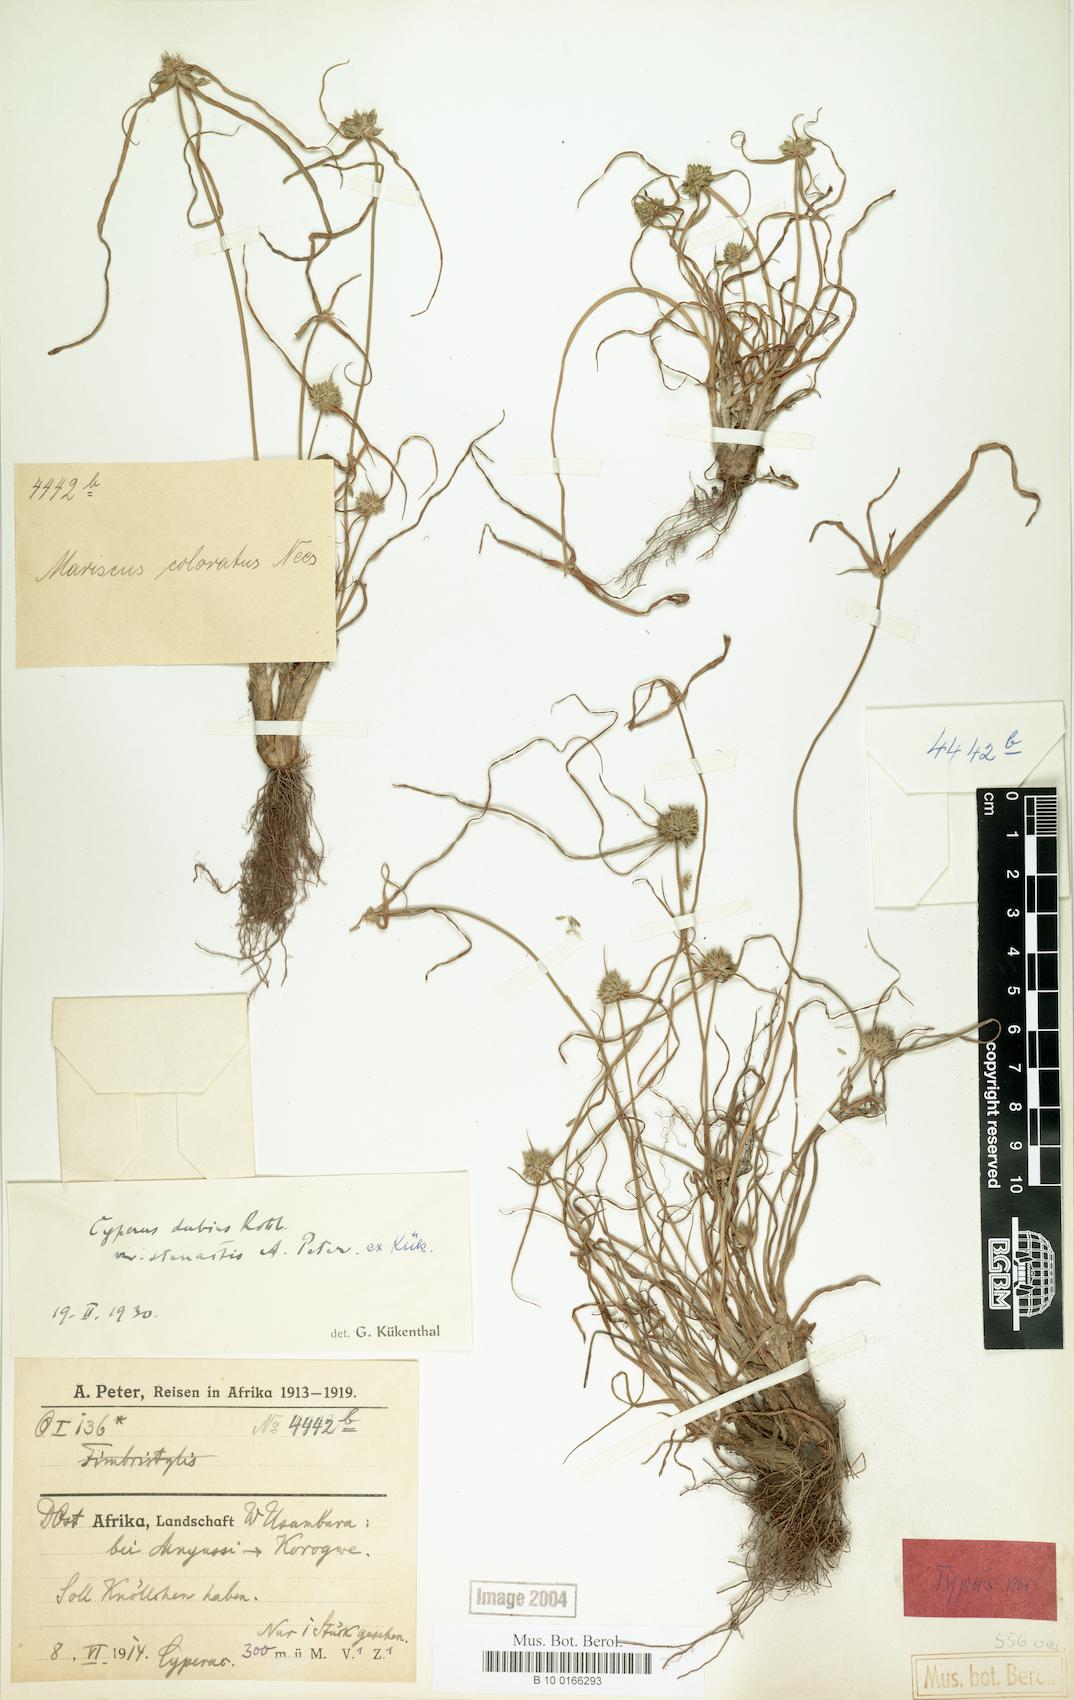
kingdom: Plantae
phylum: Tracheophyta
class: Liliopsida
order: Poales
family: Cyperaceae
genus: Cyperus
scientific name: Cyperus dubius
